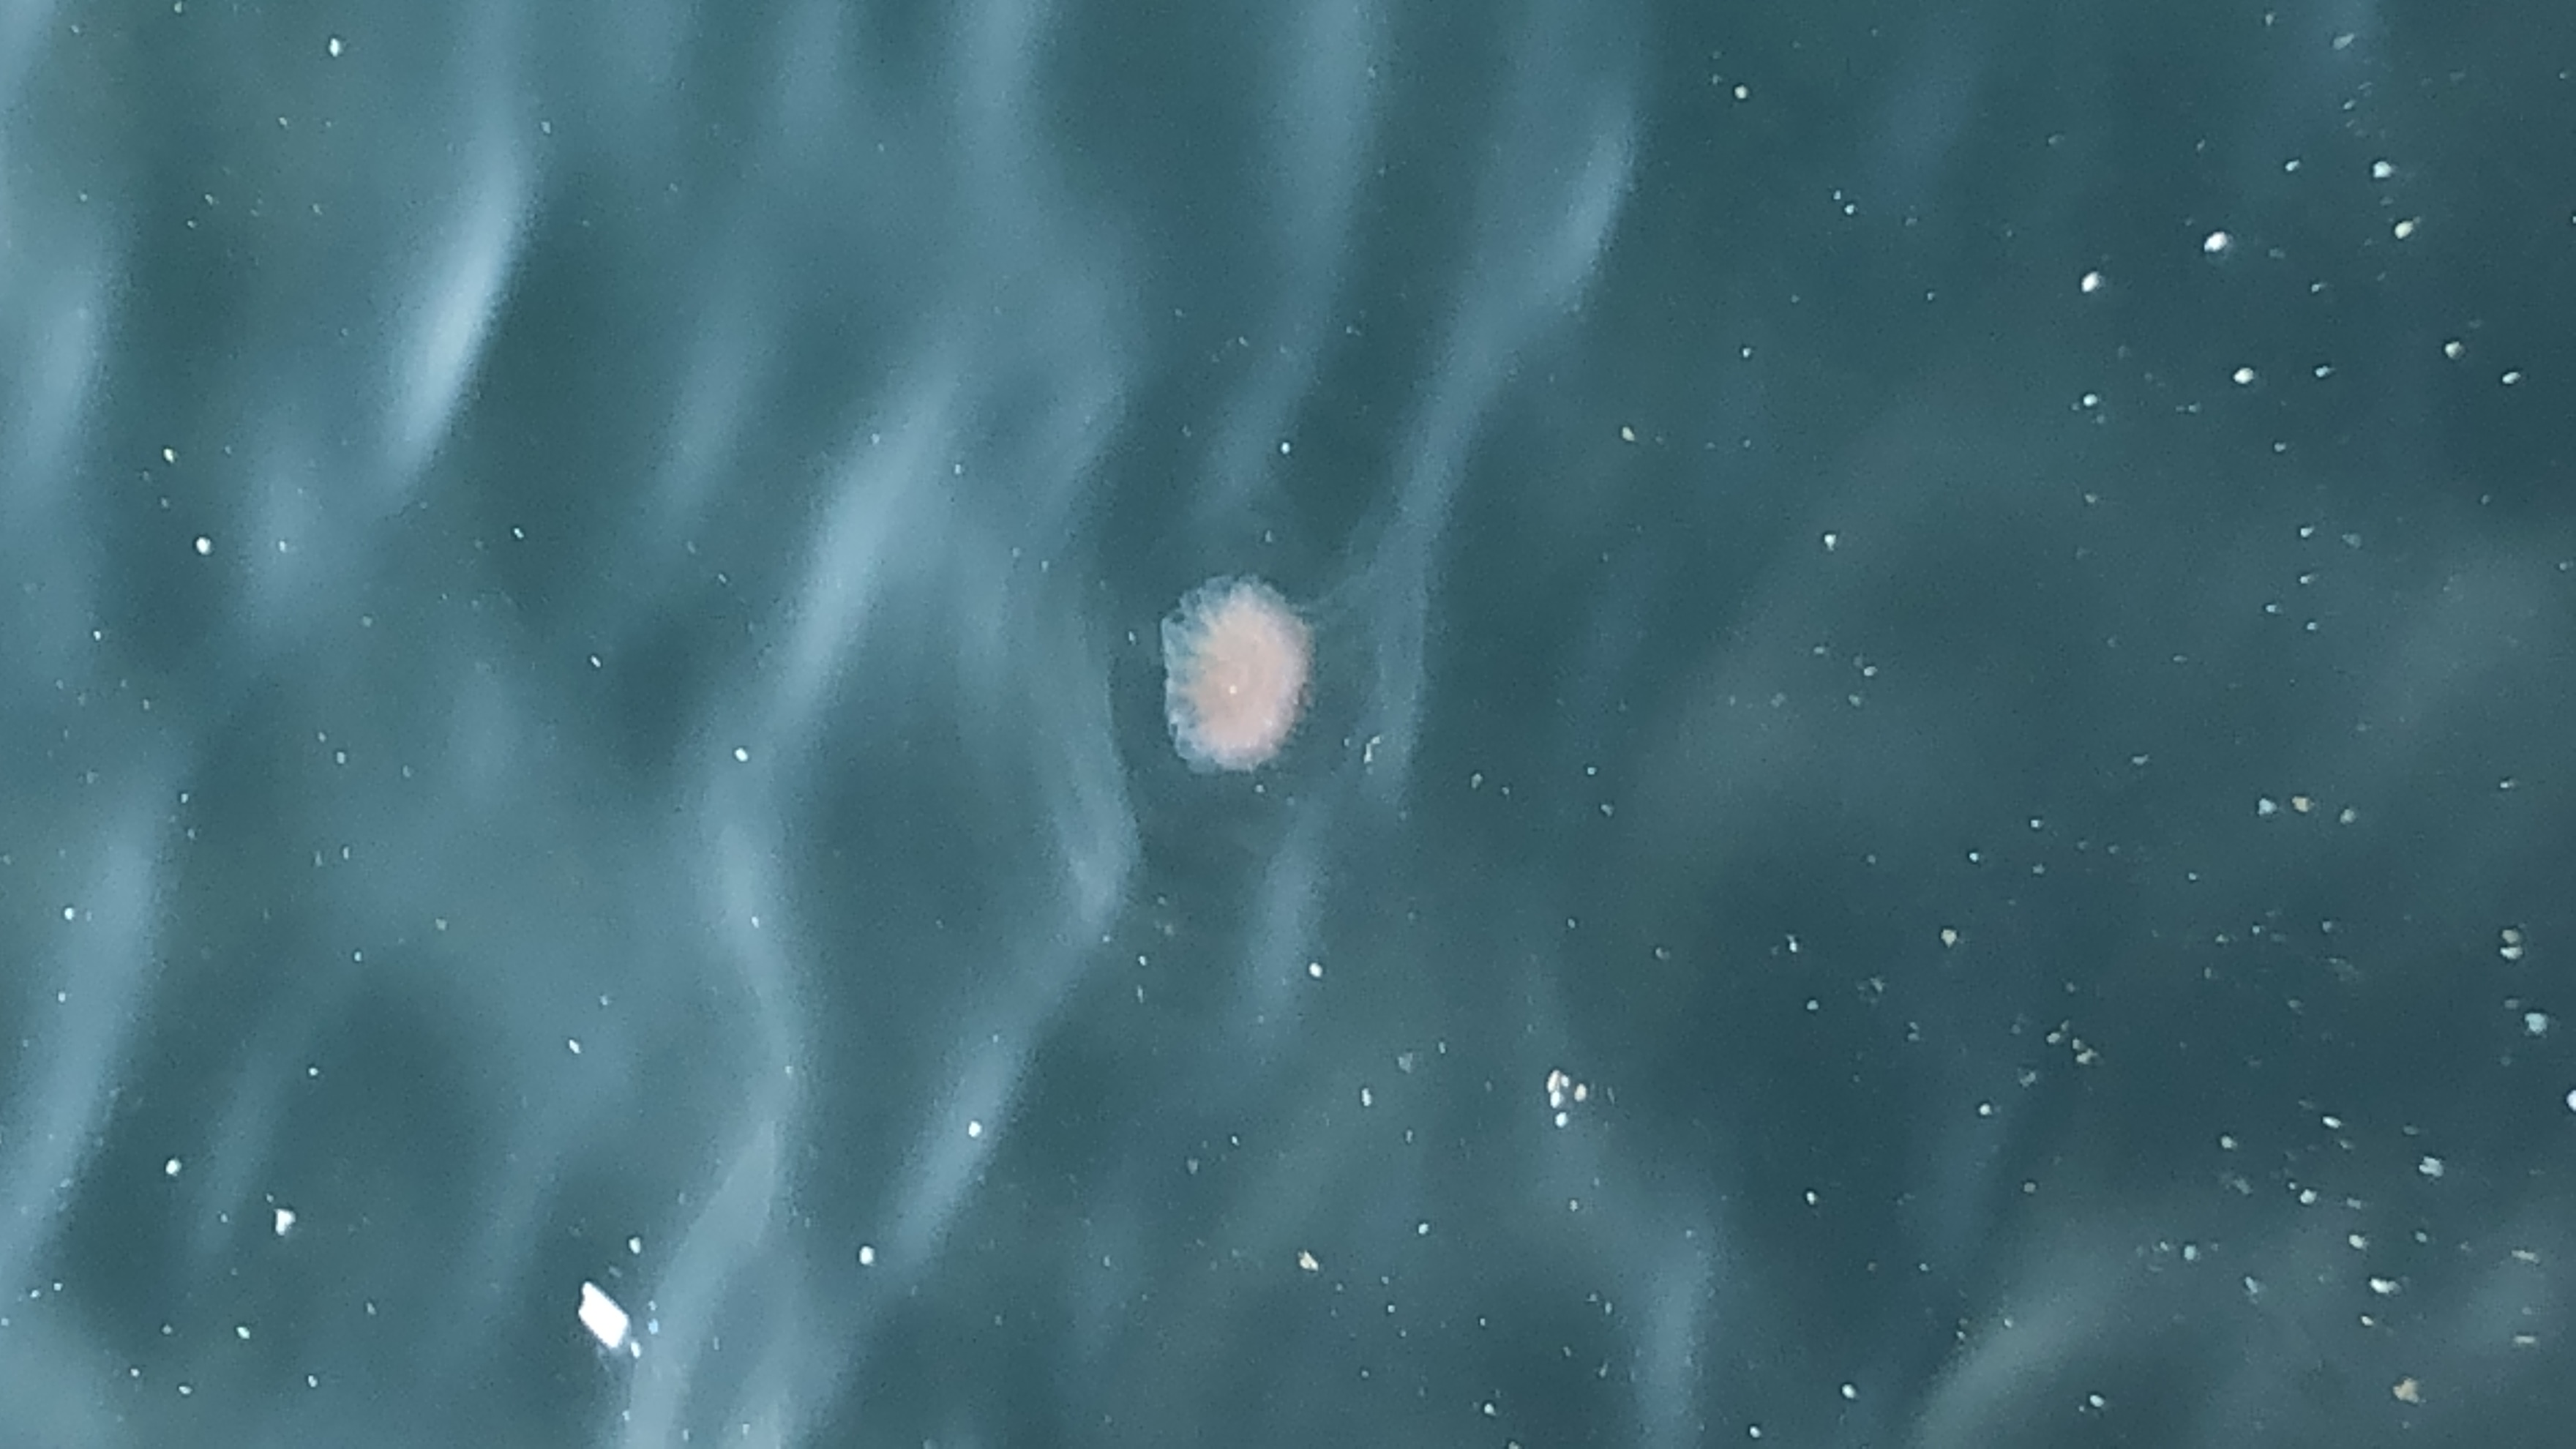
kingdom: Animalia
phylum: Cnidaria
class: Scyphozoa
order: Semaeostomeae
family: Cyaneidae
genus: Cyanea
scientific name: Cyanea nozakii
